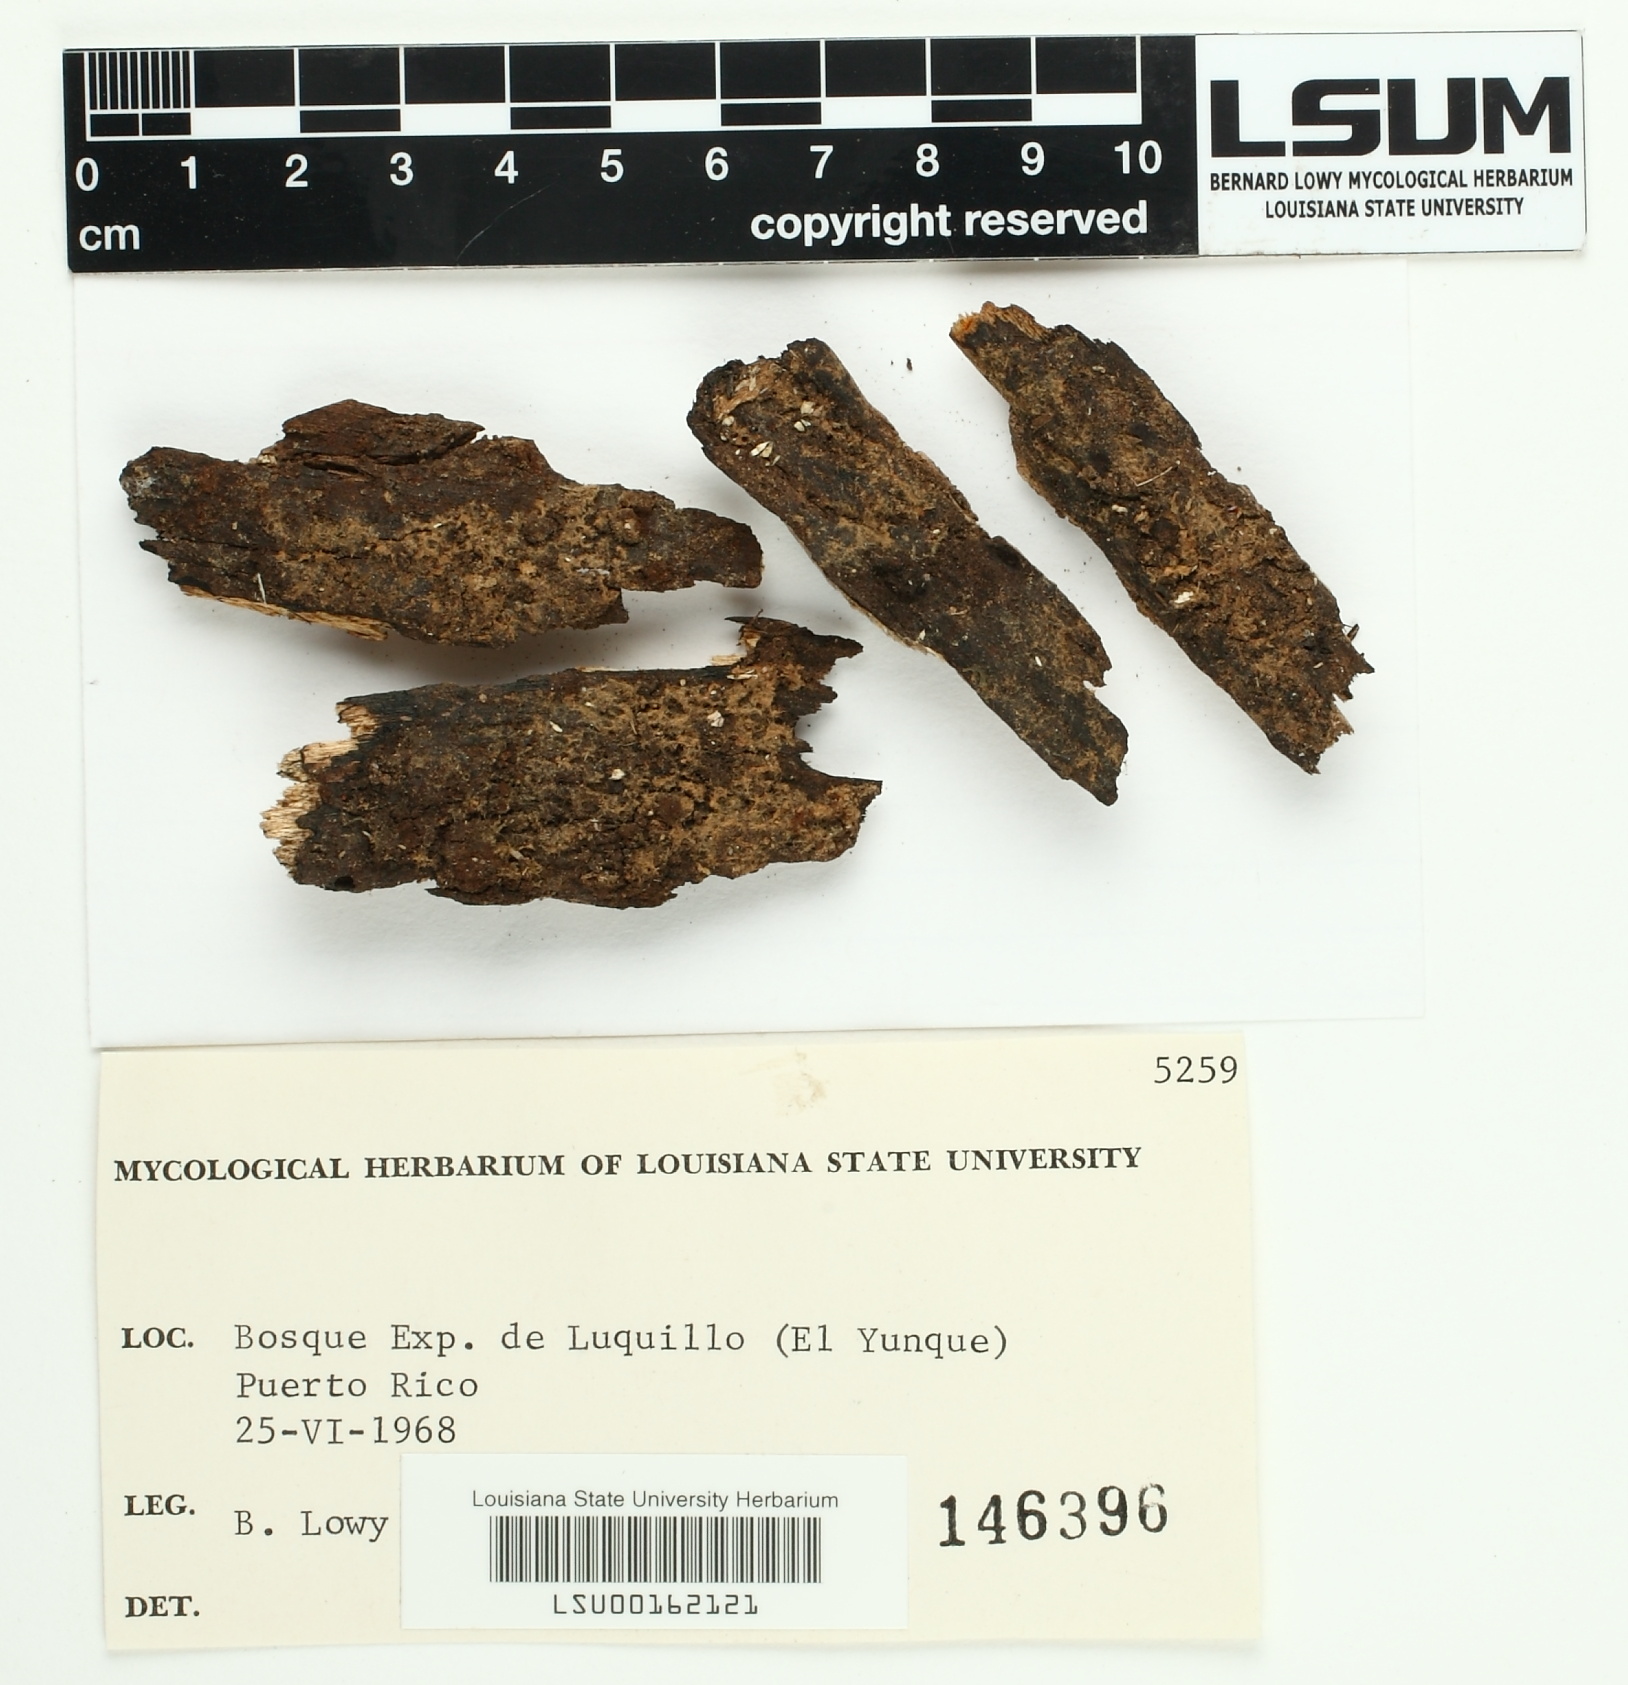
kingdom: Fungi
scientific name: Fungi
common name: Fungi
